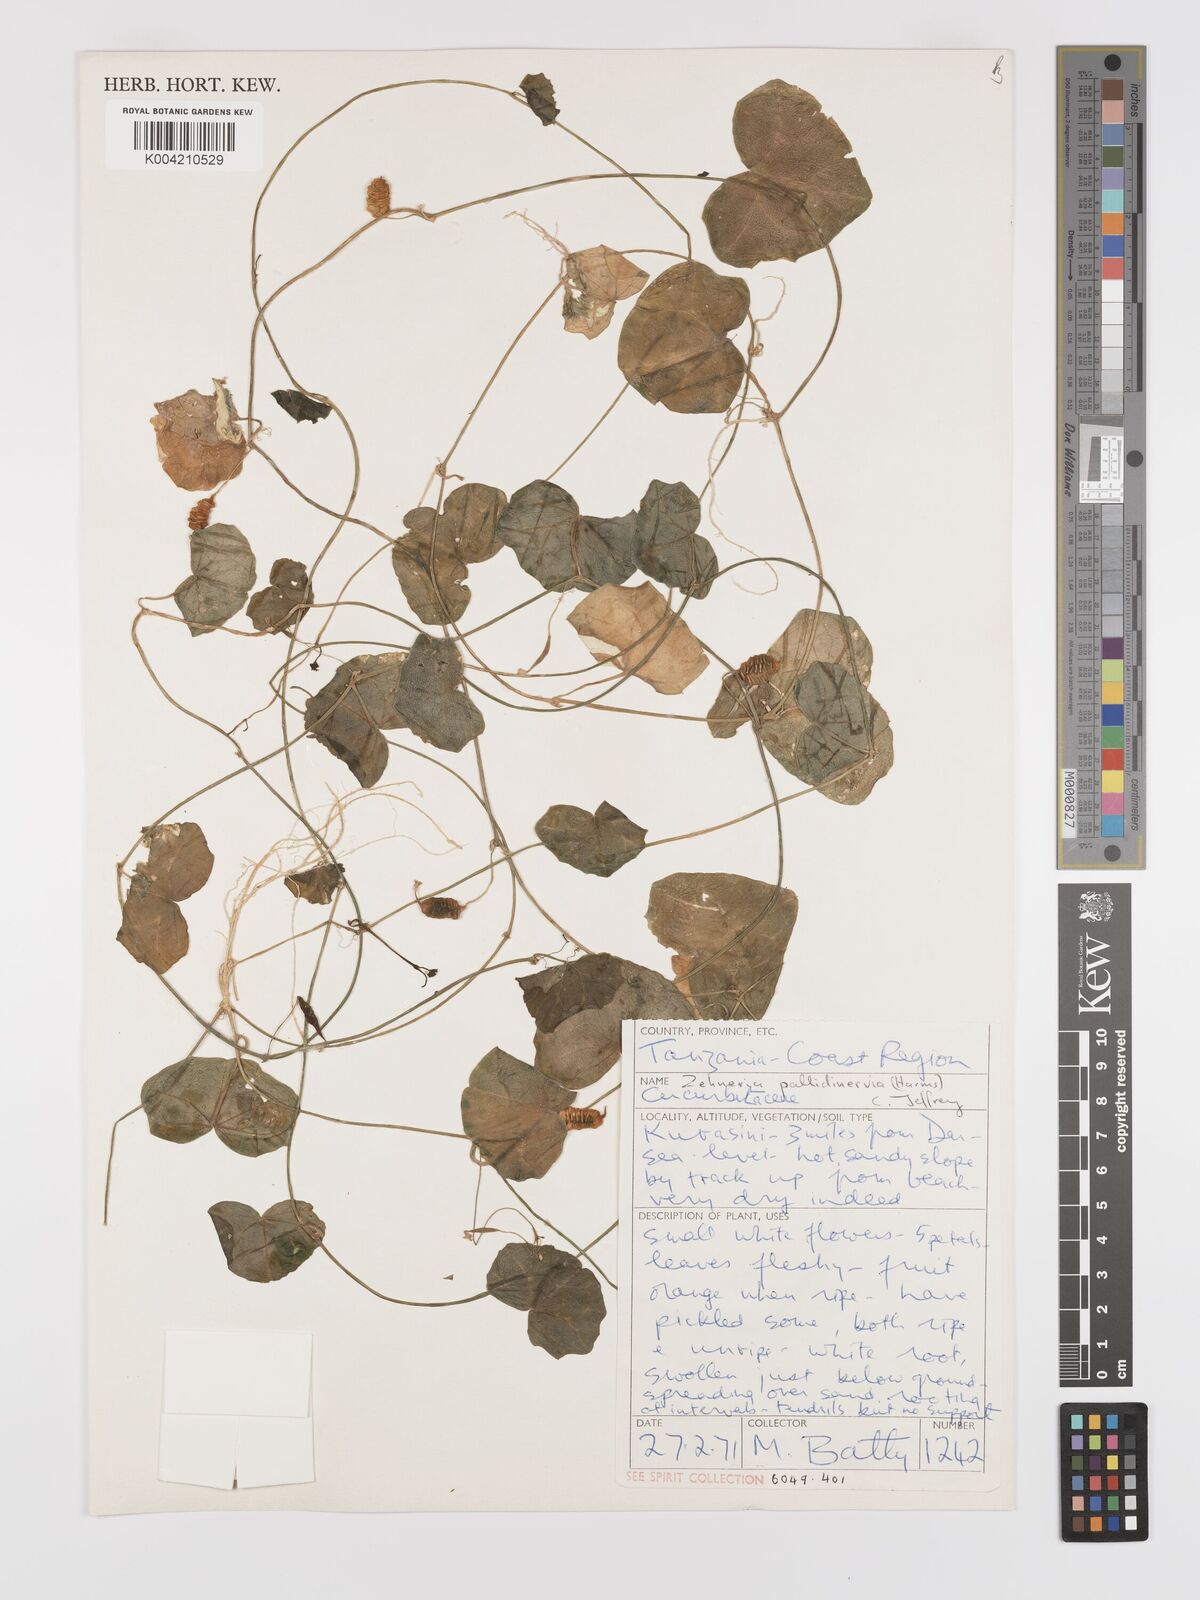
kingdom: Plantae
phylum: Tracheophyta
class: Magnoliopsida
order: Cucurbitales
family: Cucurbitaceae
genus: Zehneria
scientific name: Zehneria pallidinervia
